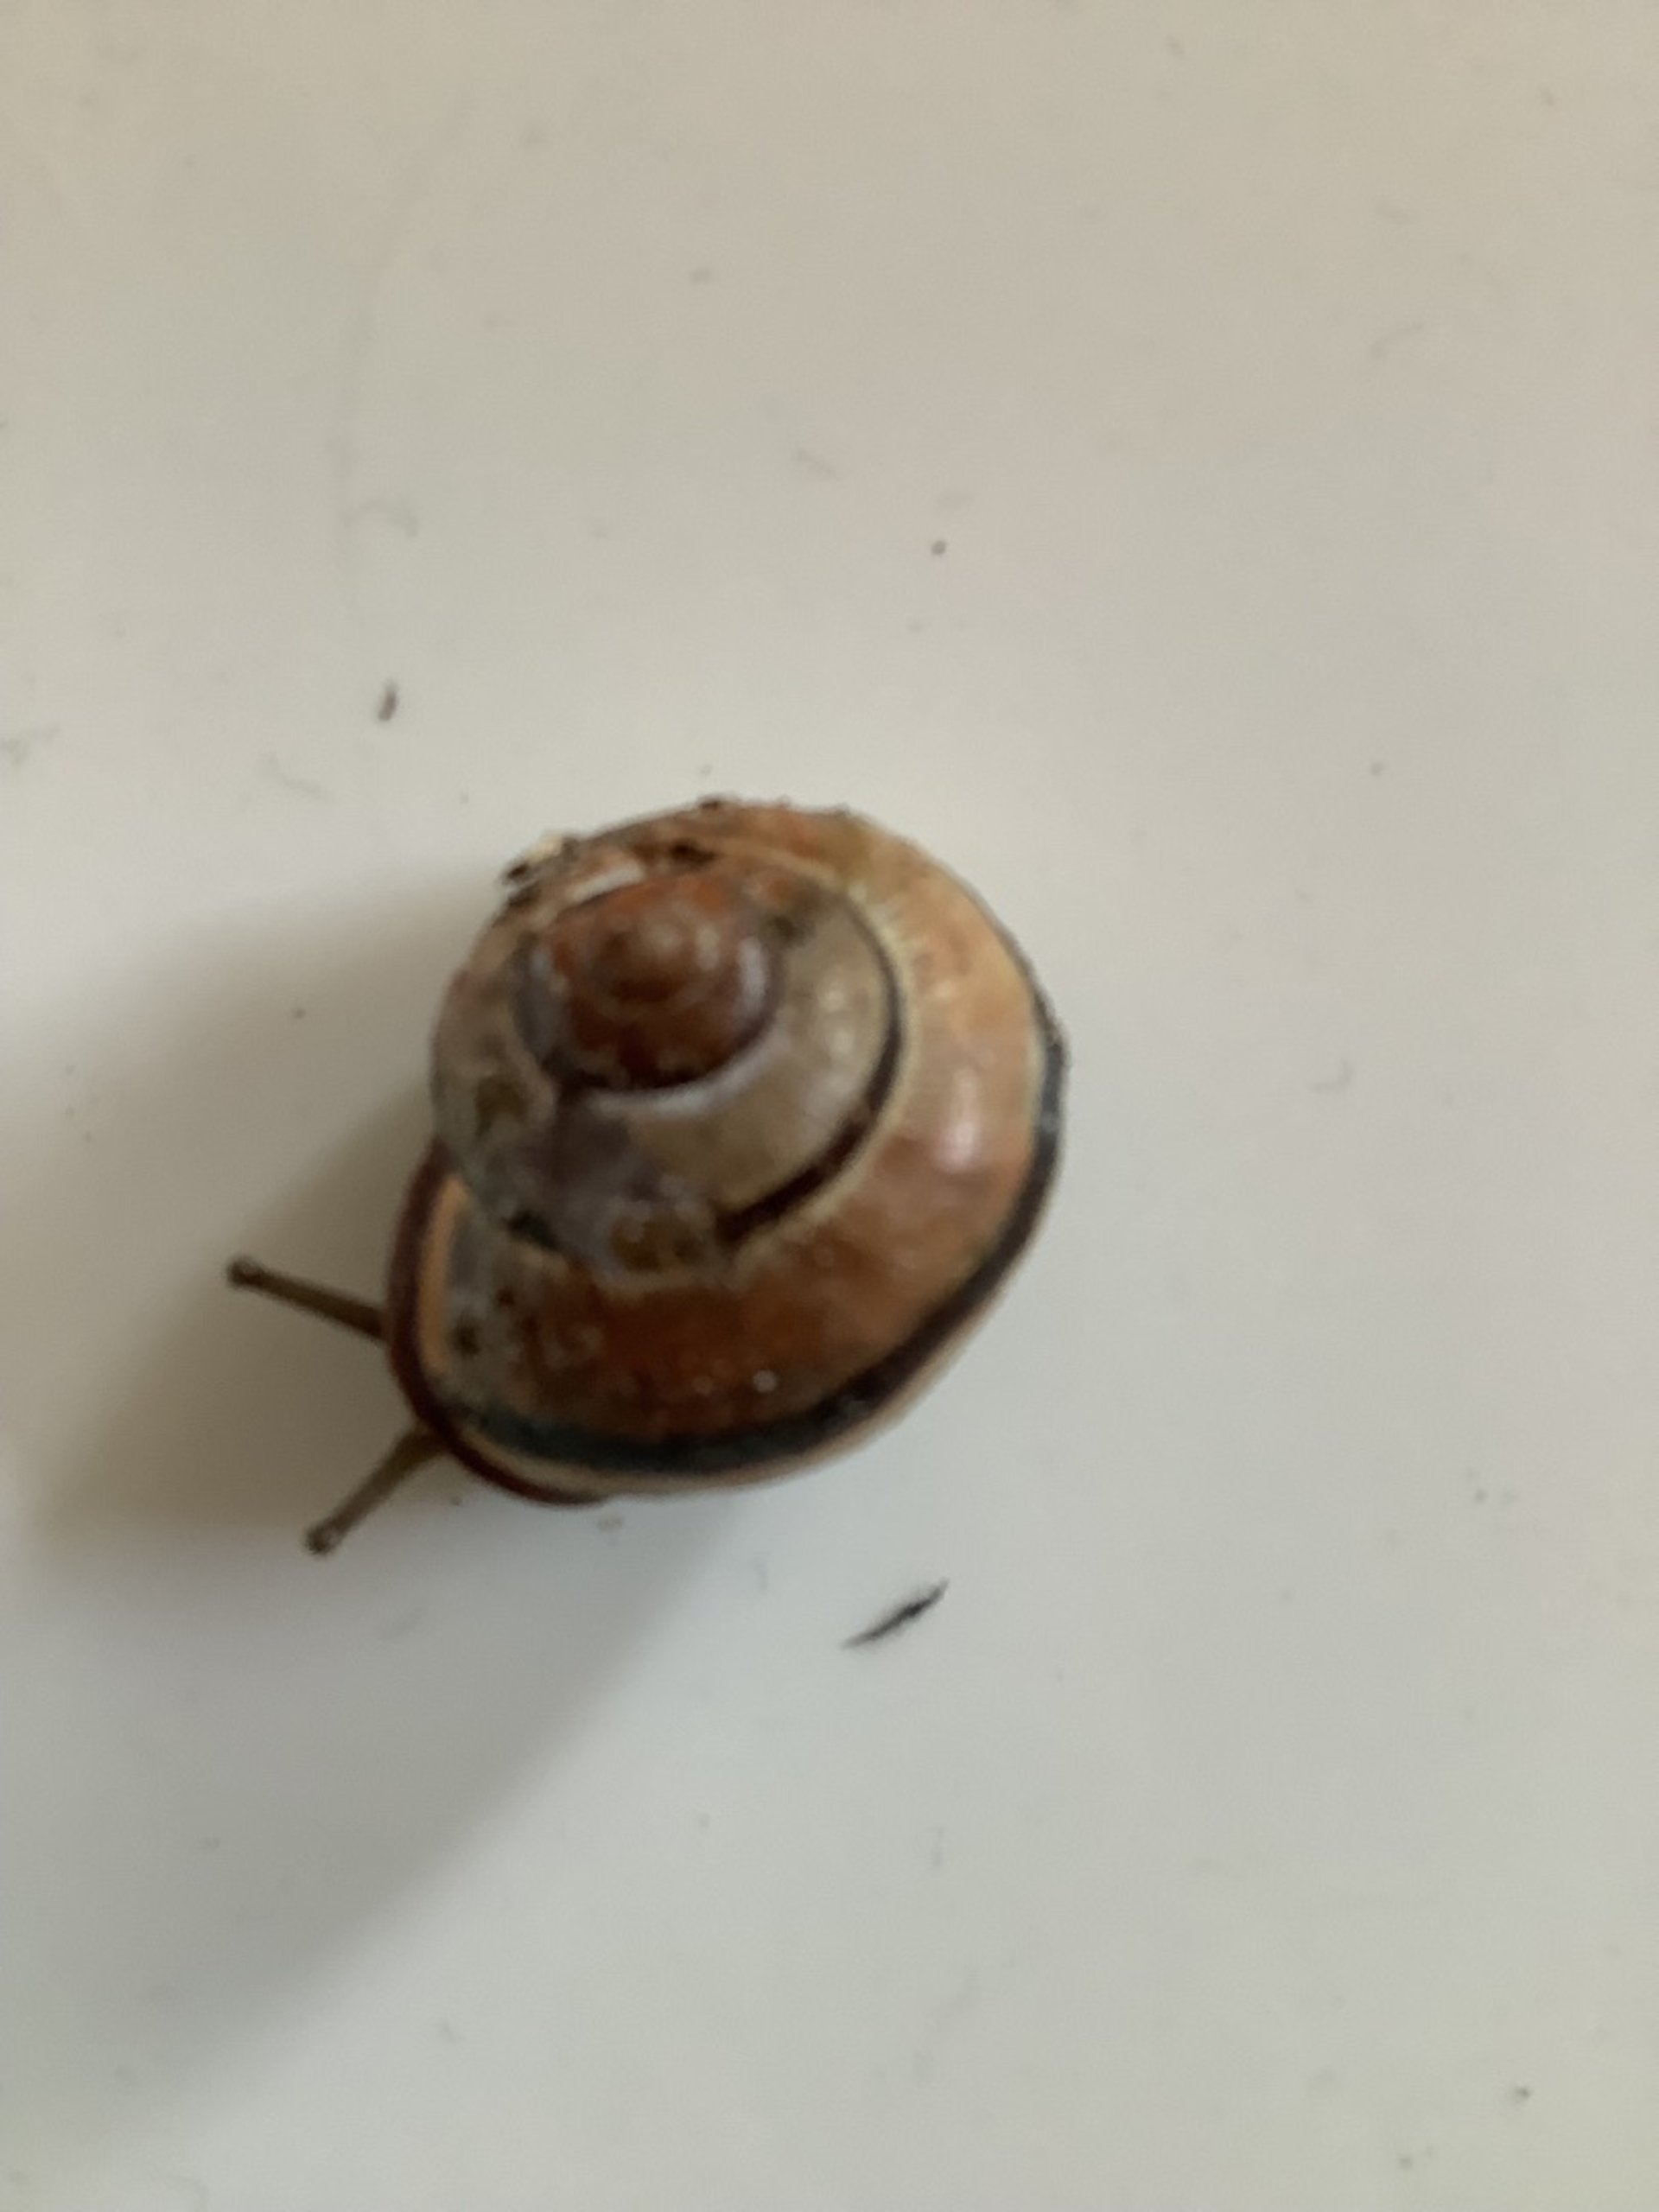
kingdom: Animalia
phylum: Mollusca
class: Gastropoda
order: Stylommatophora
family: Helicidae
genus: Cepaea
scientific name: Cepaea nemoralis
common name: Lundsnegl
